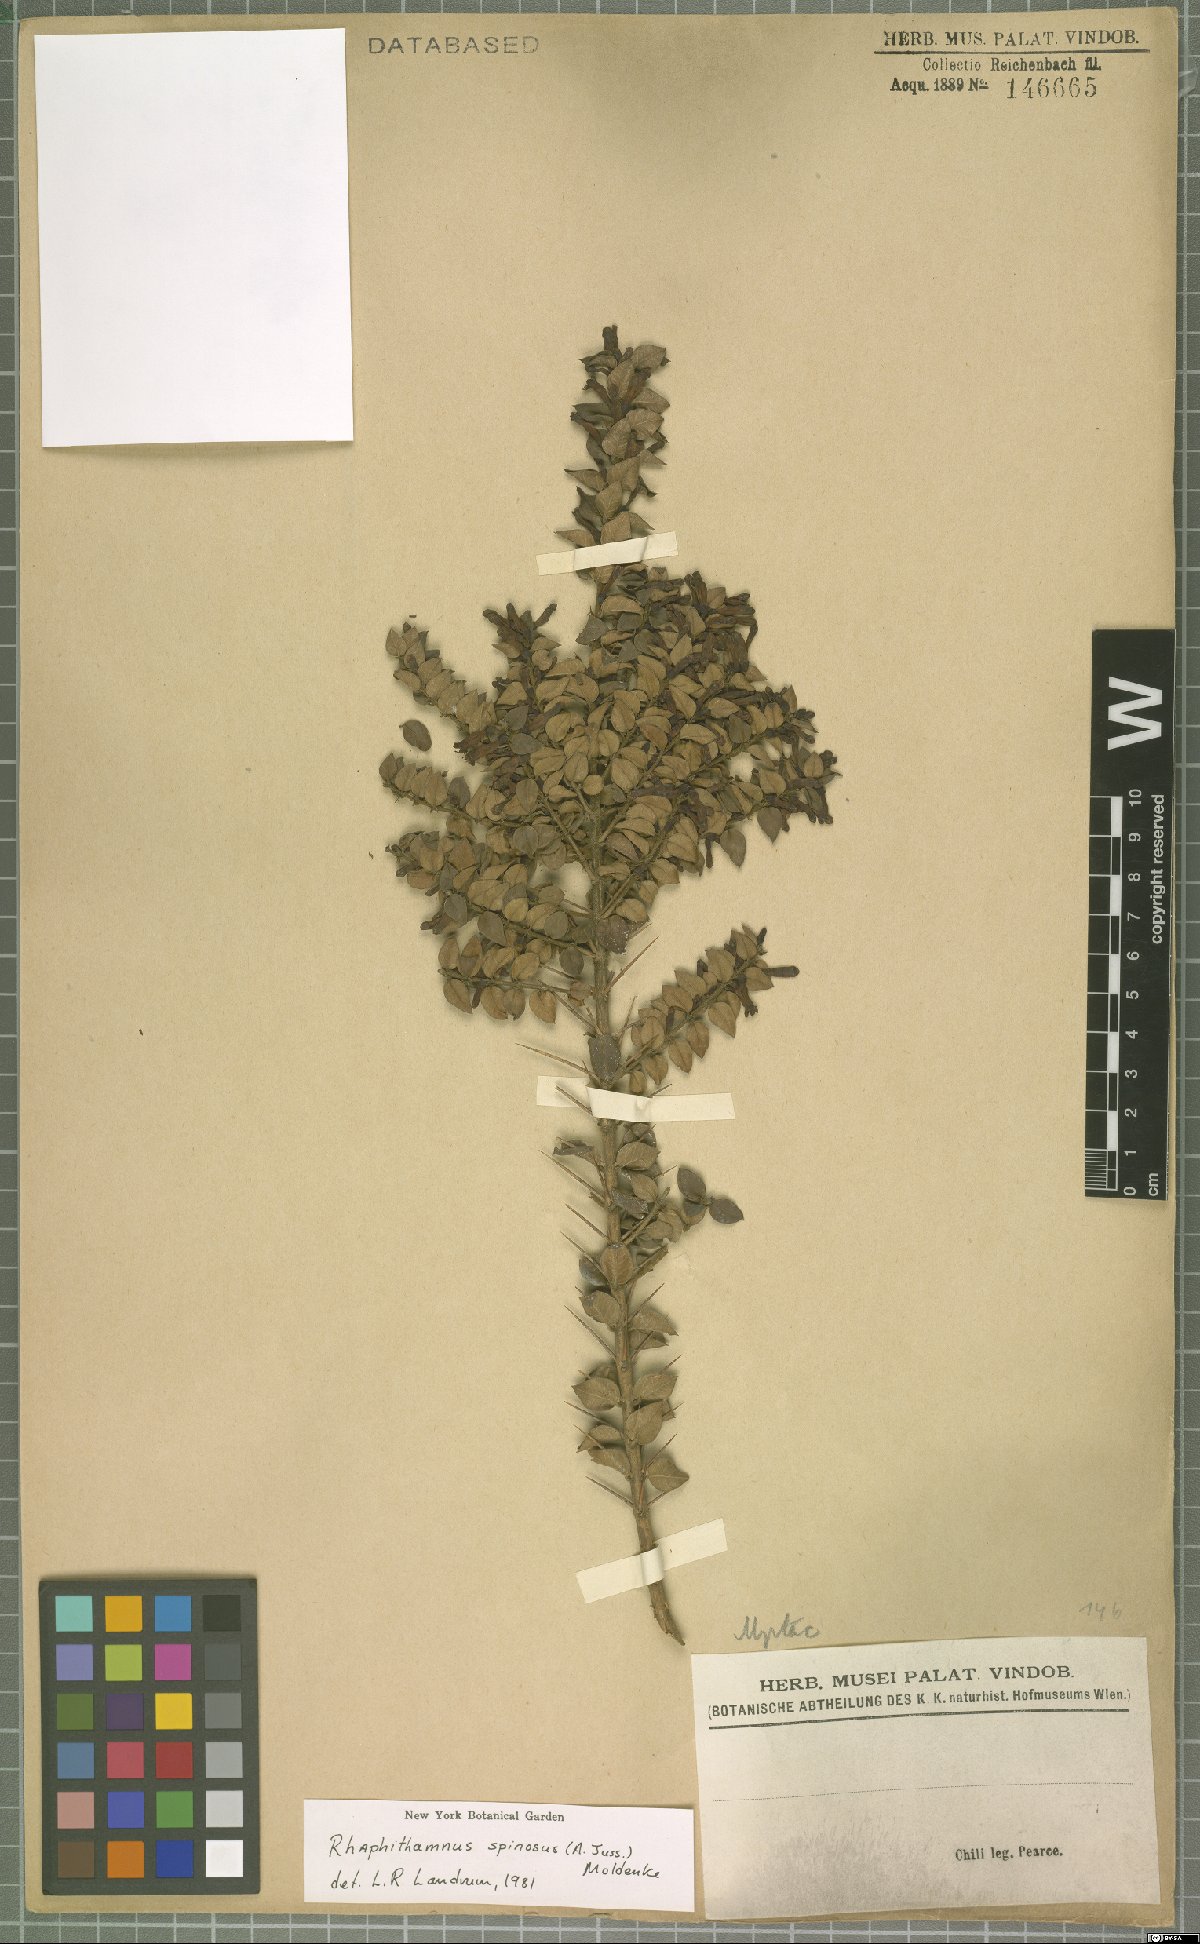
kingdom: Plantae
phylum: Tracheophyta
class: Magnoliopsida
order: Lamiales
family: Verbenaceae
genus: Rhaphithamnus
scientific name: Rhaphithamnus spinosus
